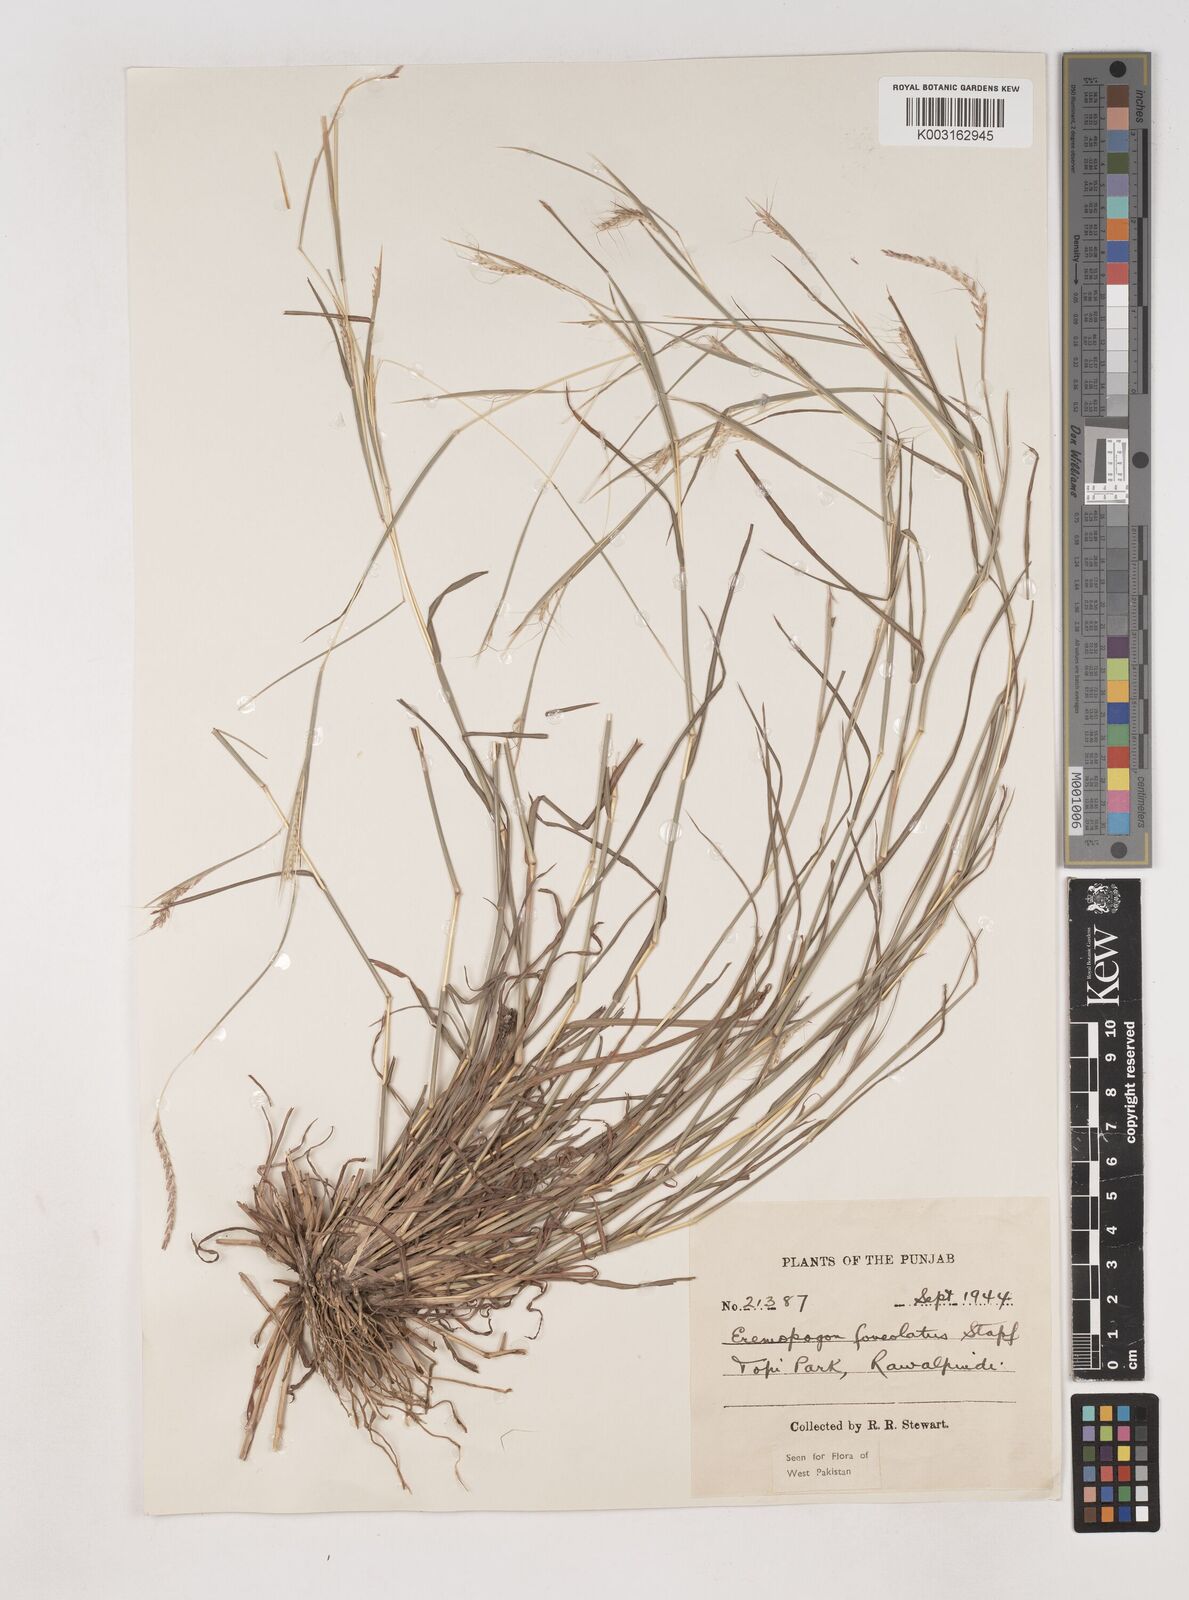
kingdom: Plantae
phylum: Tracheophyta
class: Liliopsida
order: Poales
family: Poaceae
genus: Dichanthium
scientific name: Dichanthium
